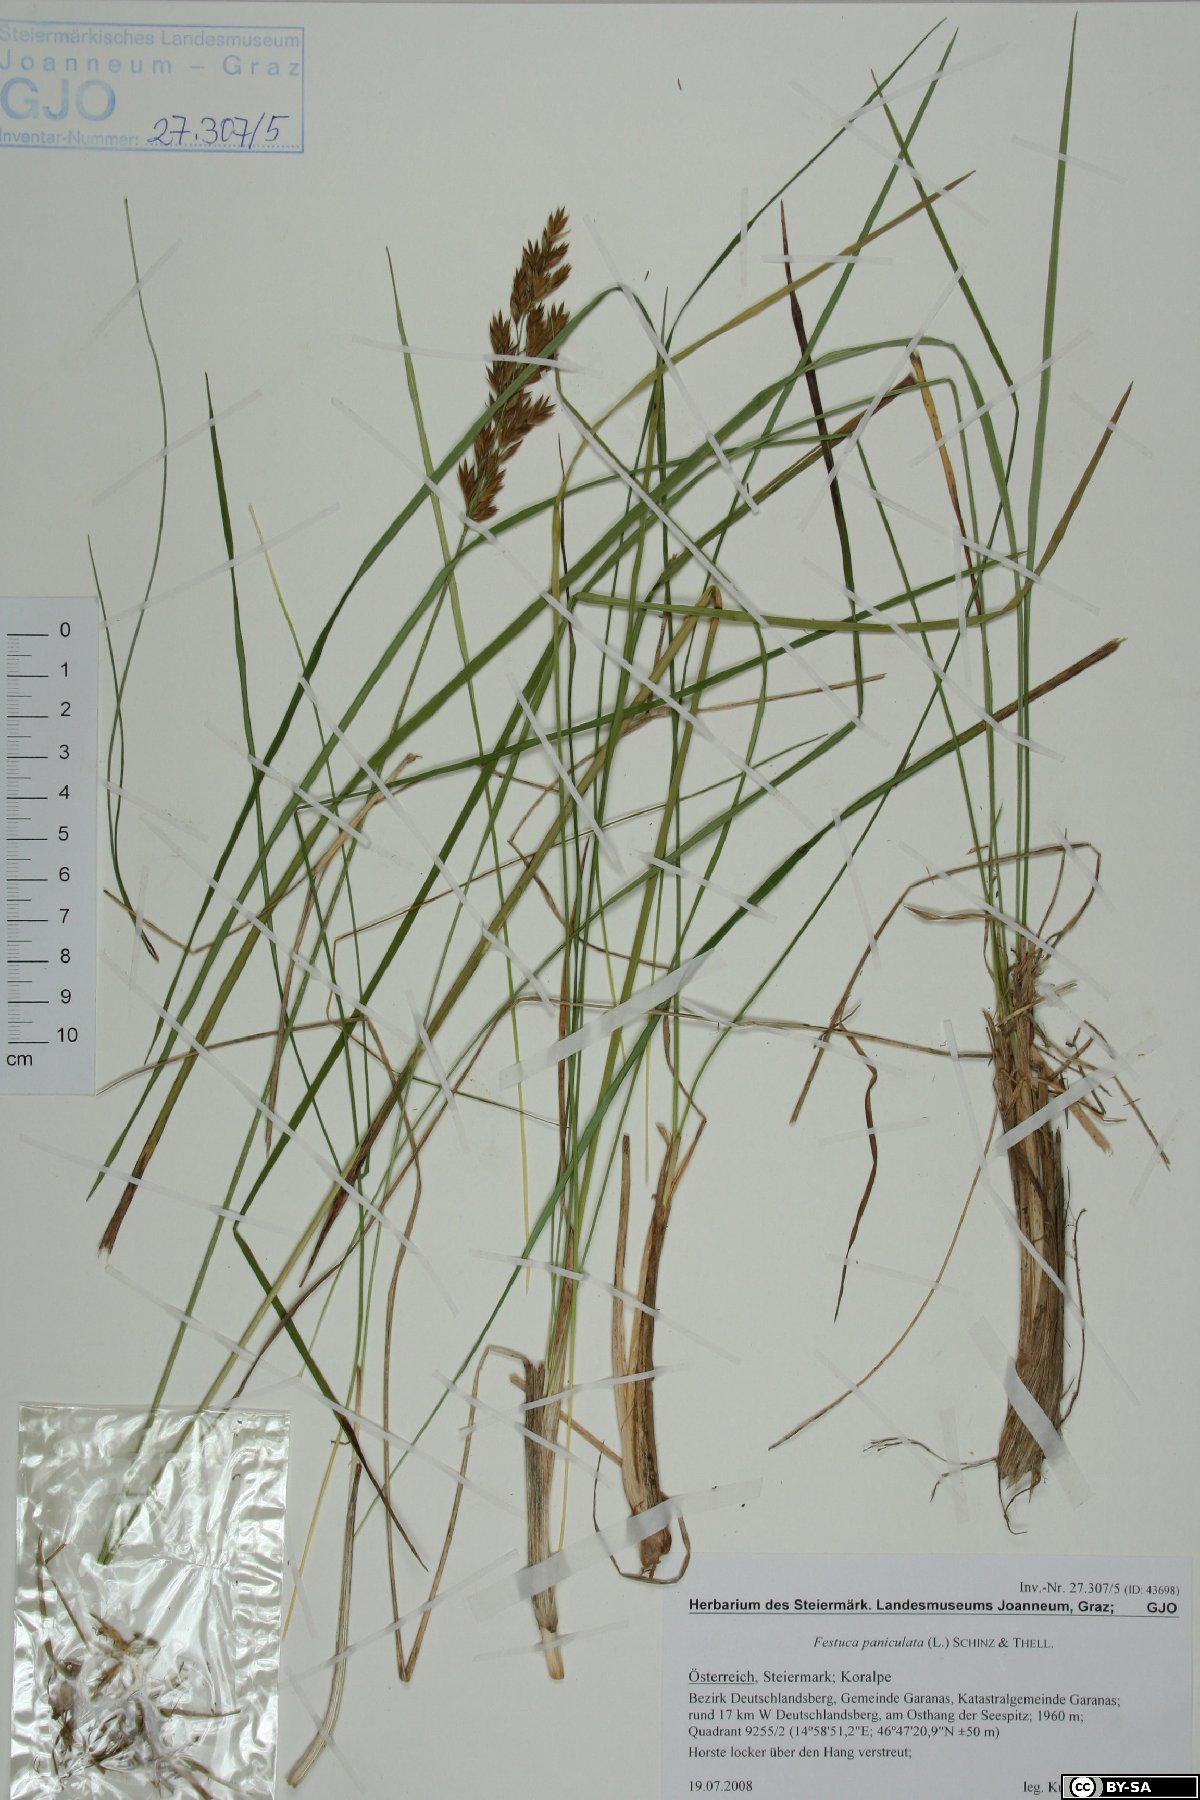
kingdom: Plantae
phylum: Tracheophyta
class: Liliopsida
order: Poales
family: Poaceae
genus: Patzkea
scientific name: Patzkea paniculata
